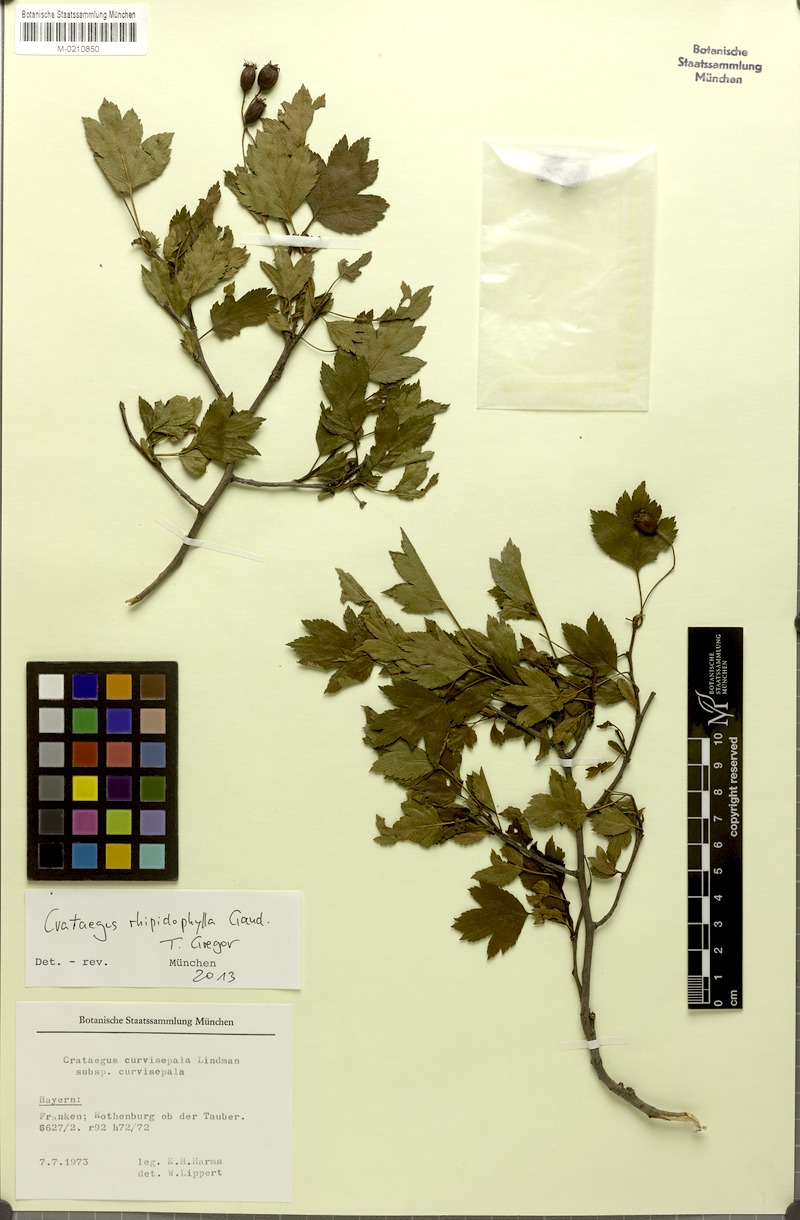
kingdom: Plantae
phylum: Tracheophyta
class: Magnoliopsida
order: Rosales
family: Rosaceae
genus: Crataegus
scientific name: Crataegus rhipidophylla
